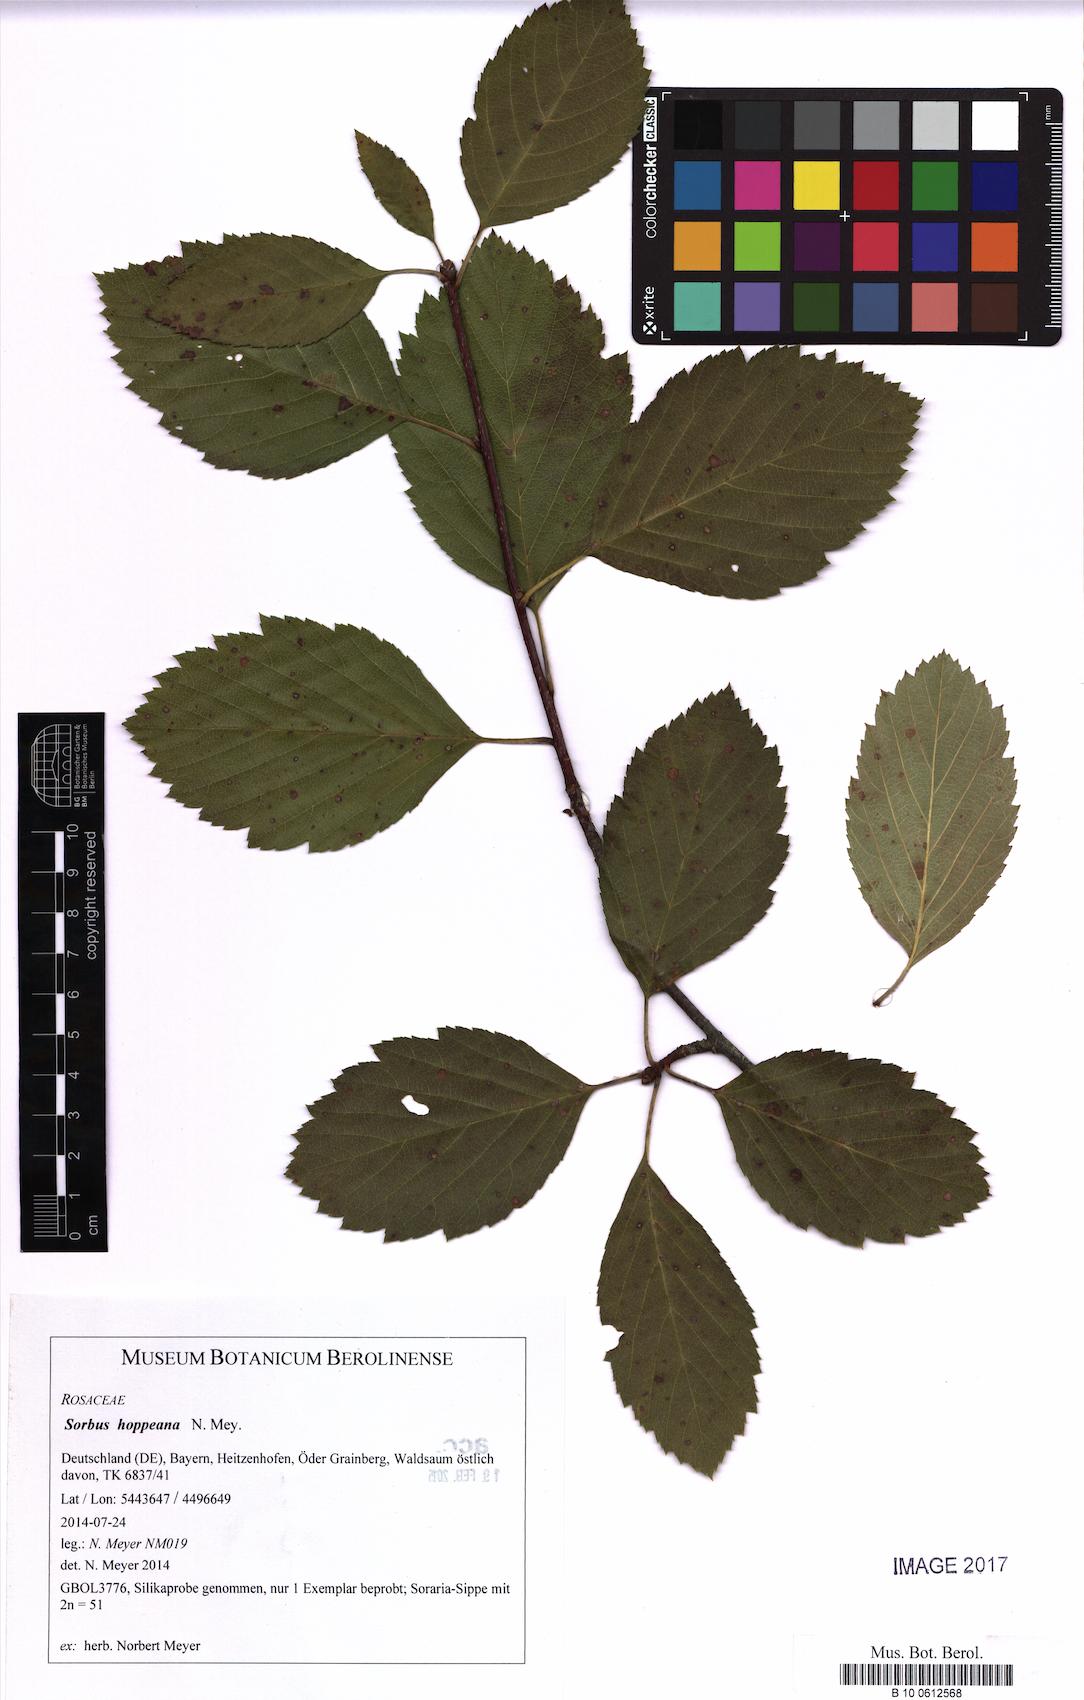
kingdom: Plantae
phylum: Tracheophyta
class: Magnoliopsida
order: Rosales
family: Rosaceae
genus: Karpatiosorbus
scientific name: Karpatiosorbus hoppeana
